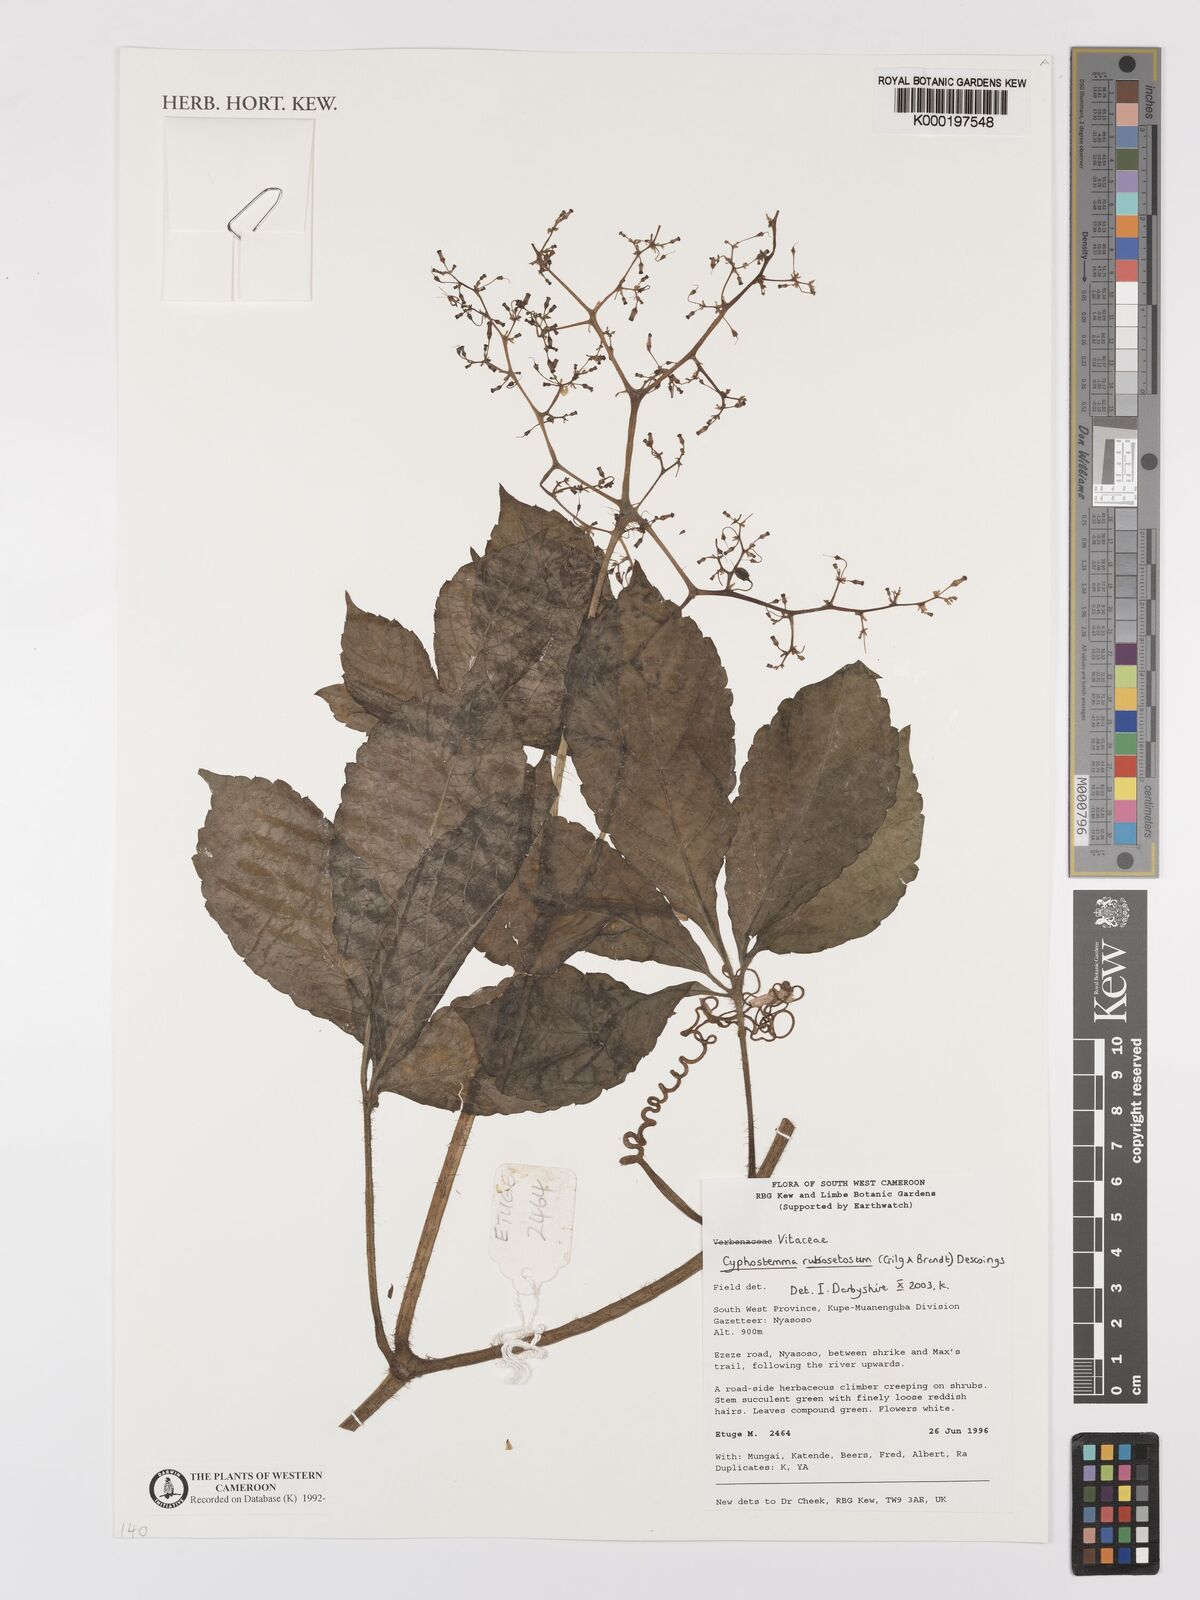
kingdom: Plantae
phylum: Tracheophyta
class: Magnoliopsida
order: Vitales
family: Vitaceae
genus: Cyphostemma
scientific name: Cyphostemma rubrosetosum
